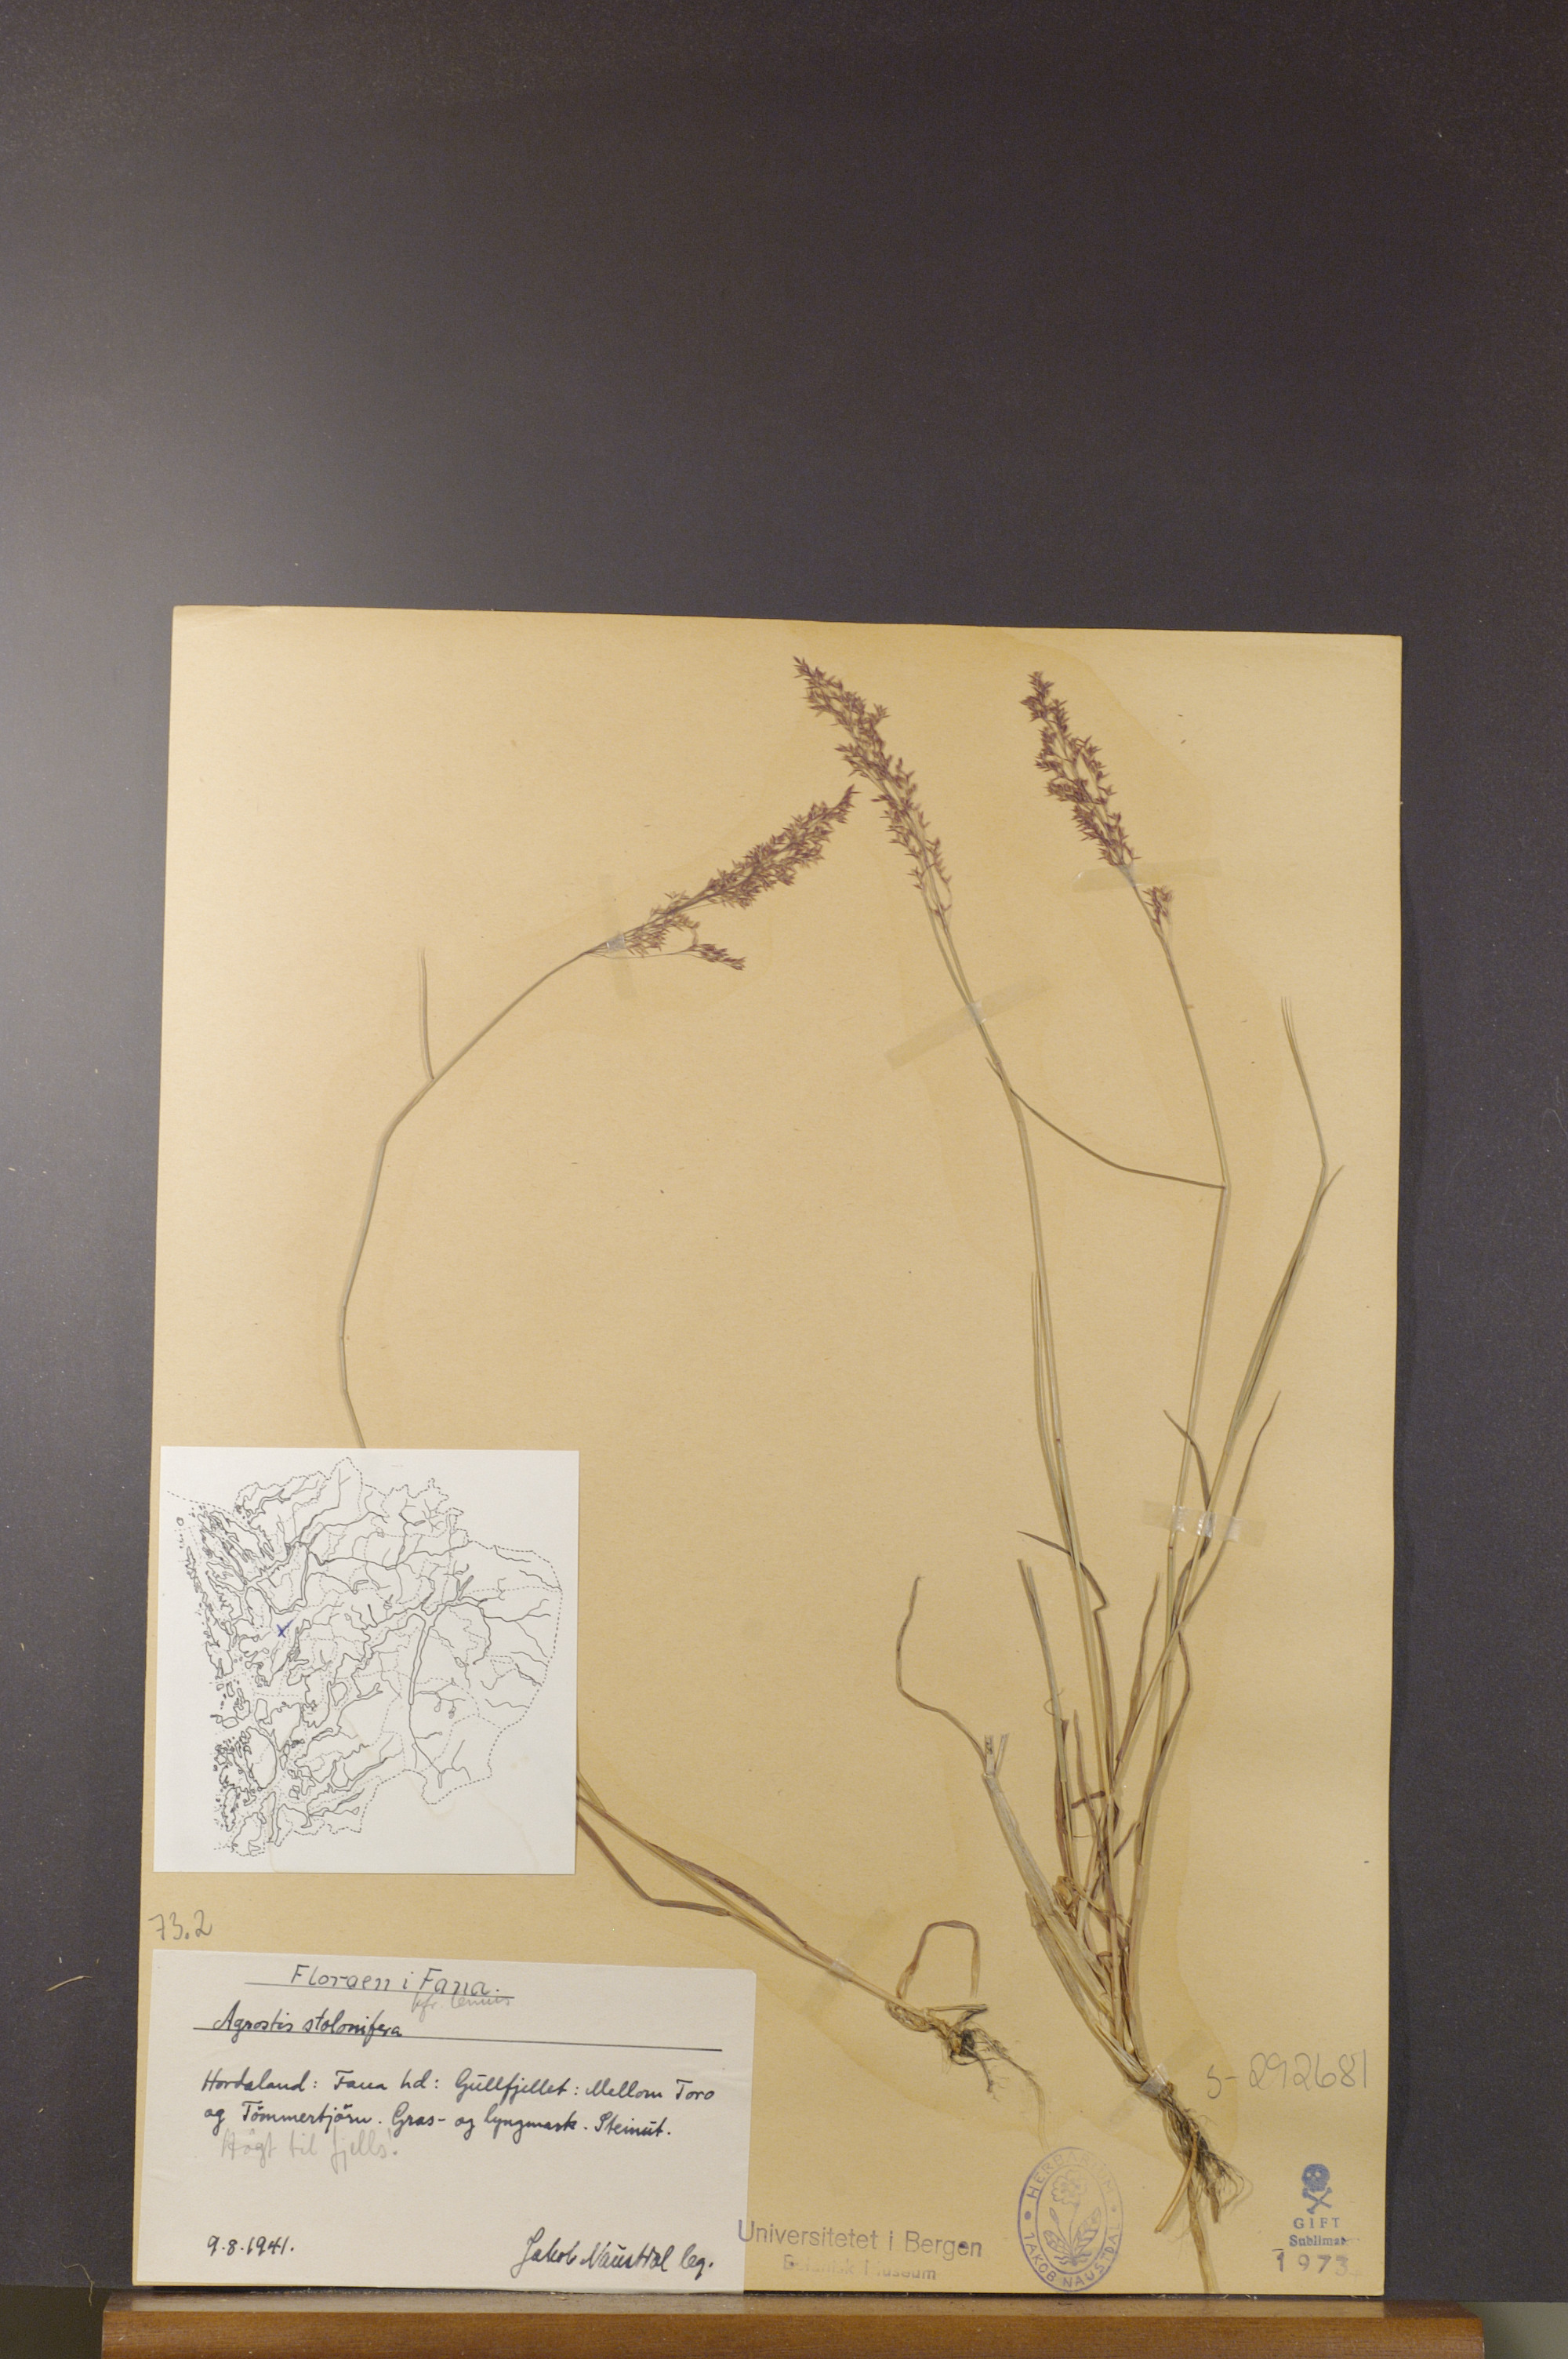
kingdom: Plantae
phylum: Tracheophyta
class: Liliopsida
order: Poales
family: Poaceae
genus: Agrostis
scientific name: Agrostis stolonifera
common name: Creeping bentgrass
